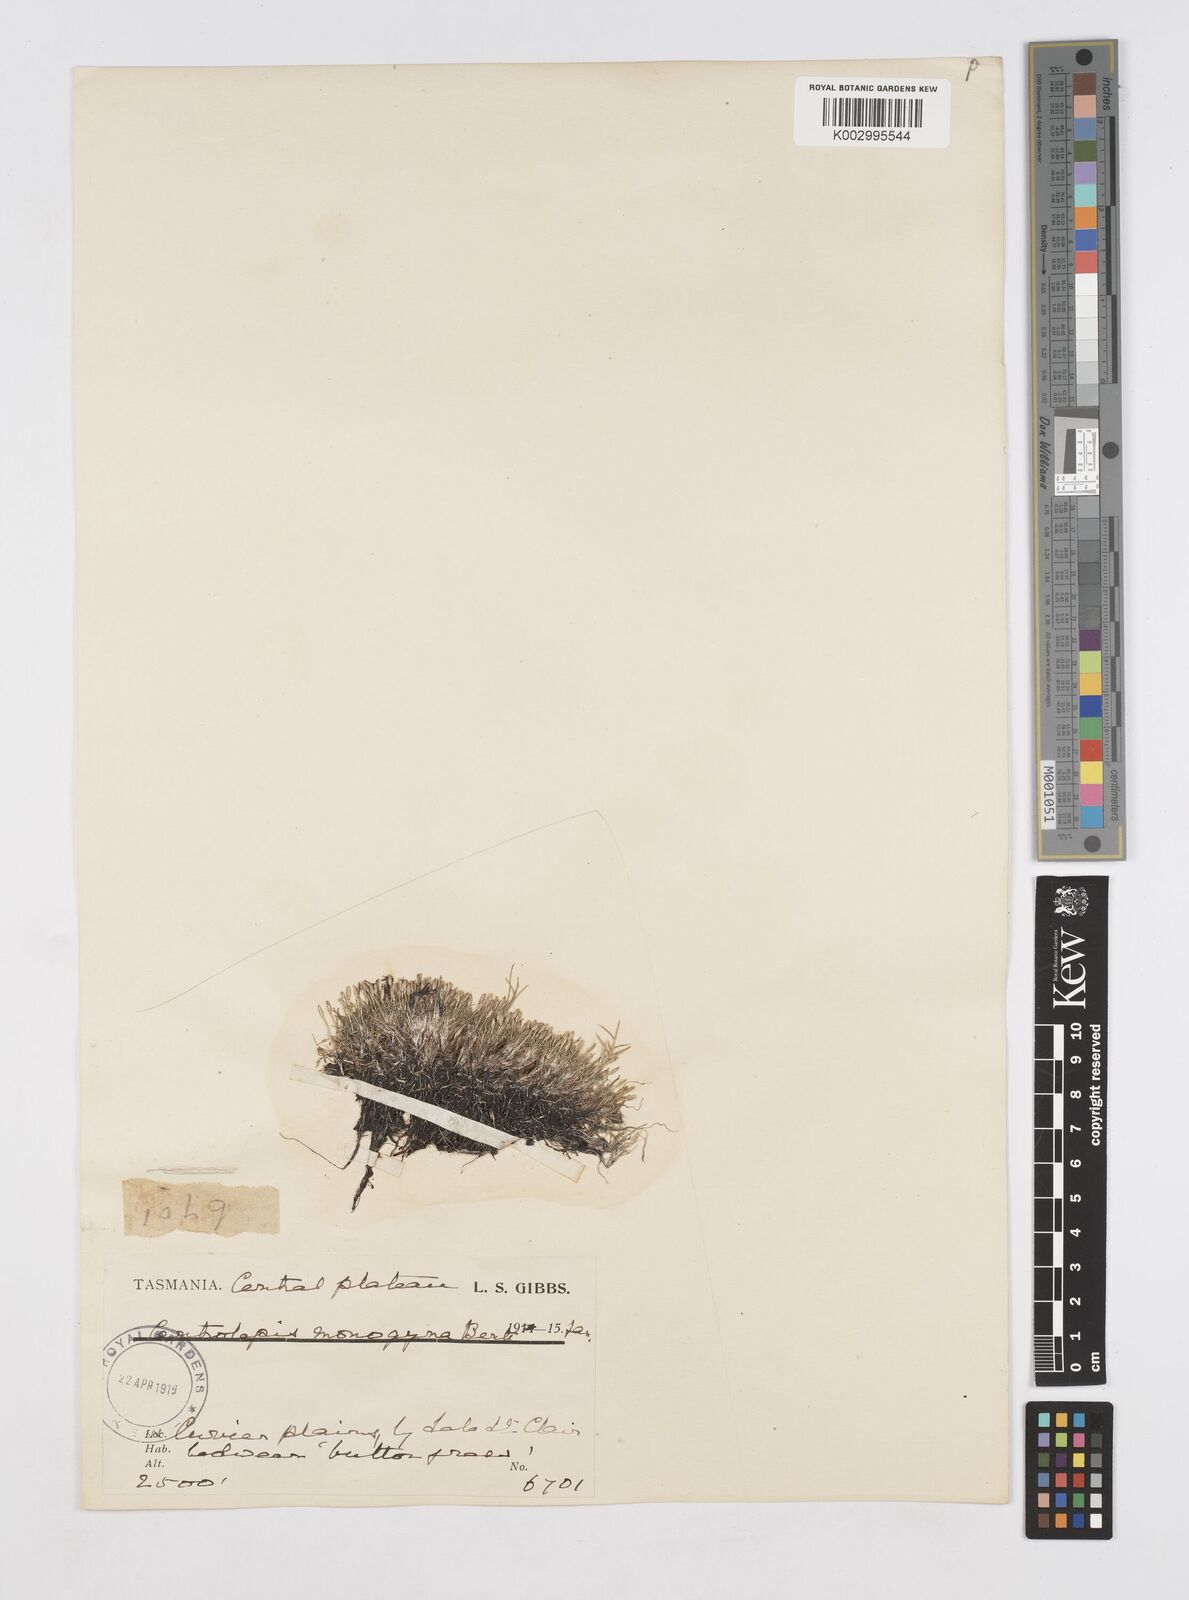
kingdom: Plantae
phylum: Tracheophyta
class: Liliopsida
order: Poales
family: Restionaceae
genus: Centrolepis
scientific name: Centrolepis monogyna
